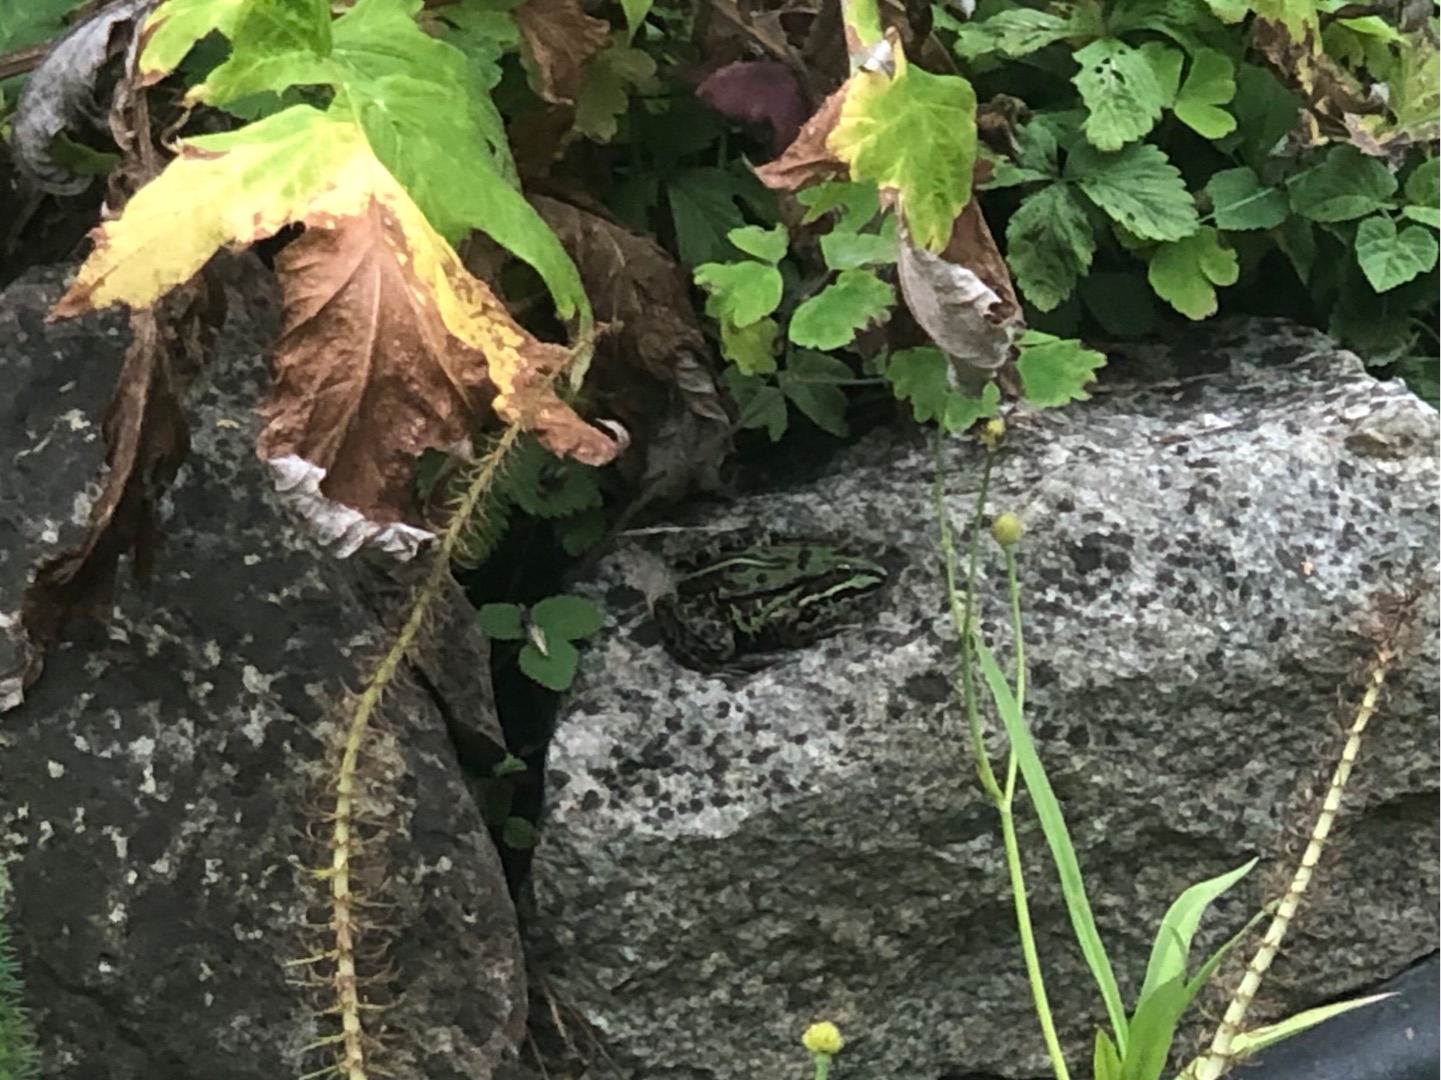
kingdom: Animalia
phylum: Chordata
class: Amphibia
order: Anura
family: Ranidae
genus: Pelophylax
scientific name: Pelophylax lessonae
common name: Grøn frø
